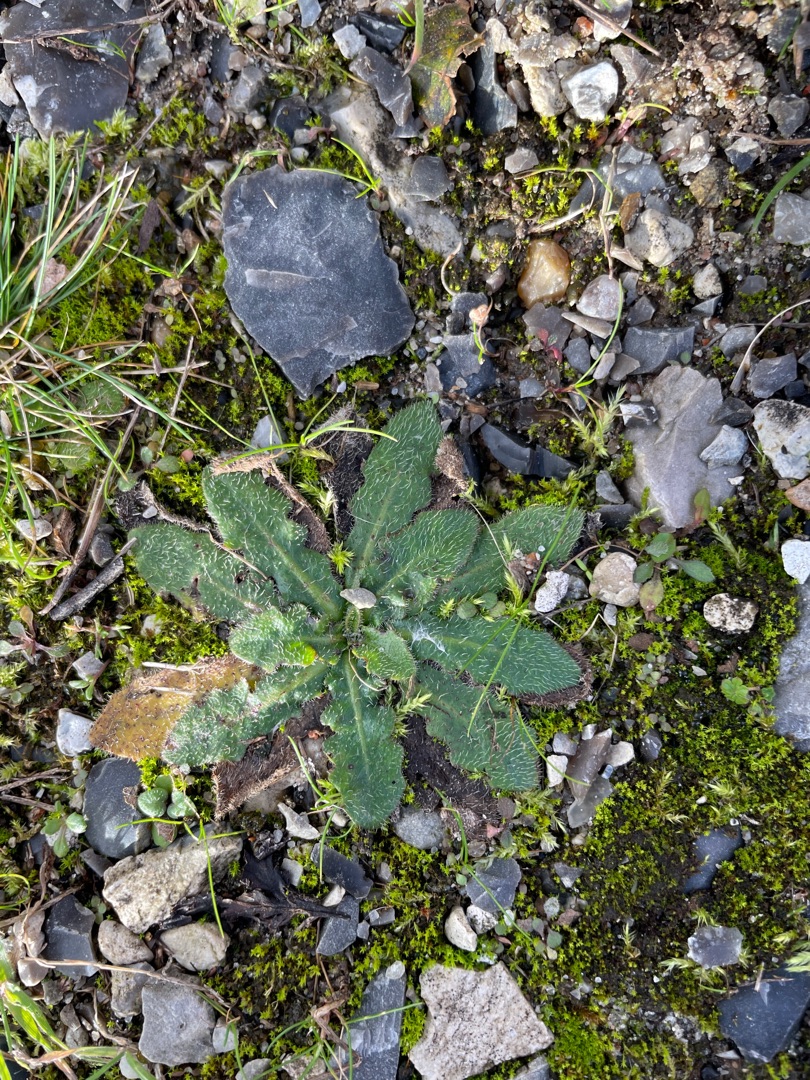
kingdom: Plantae
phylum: Tracheophyta
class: Magnoliopsida
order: Asterales
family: Asteraceae
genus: Hypochaeris
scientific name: Hypochaeris radicata
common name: Almindelig kongepen
